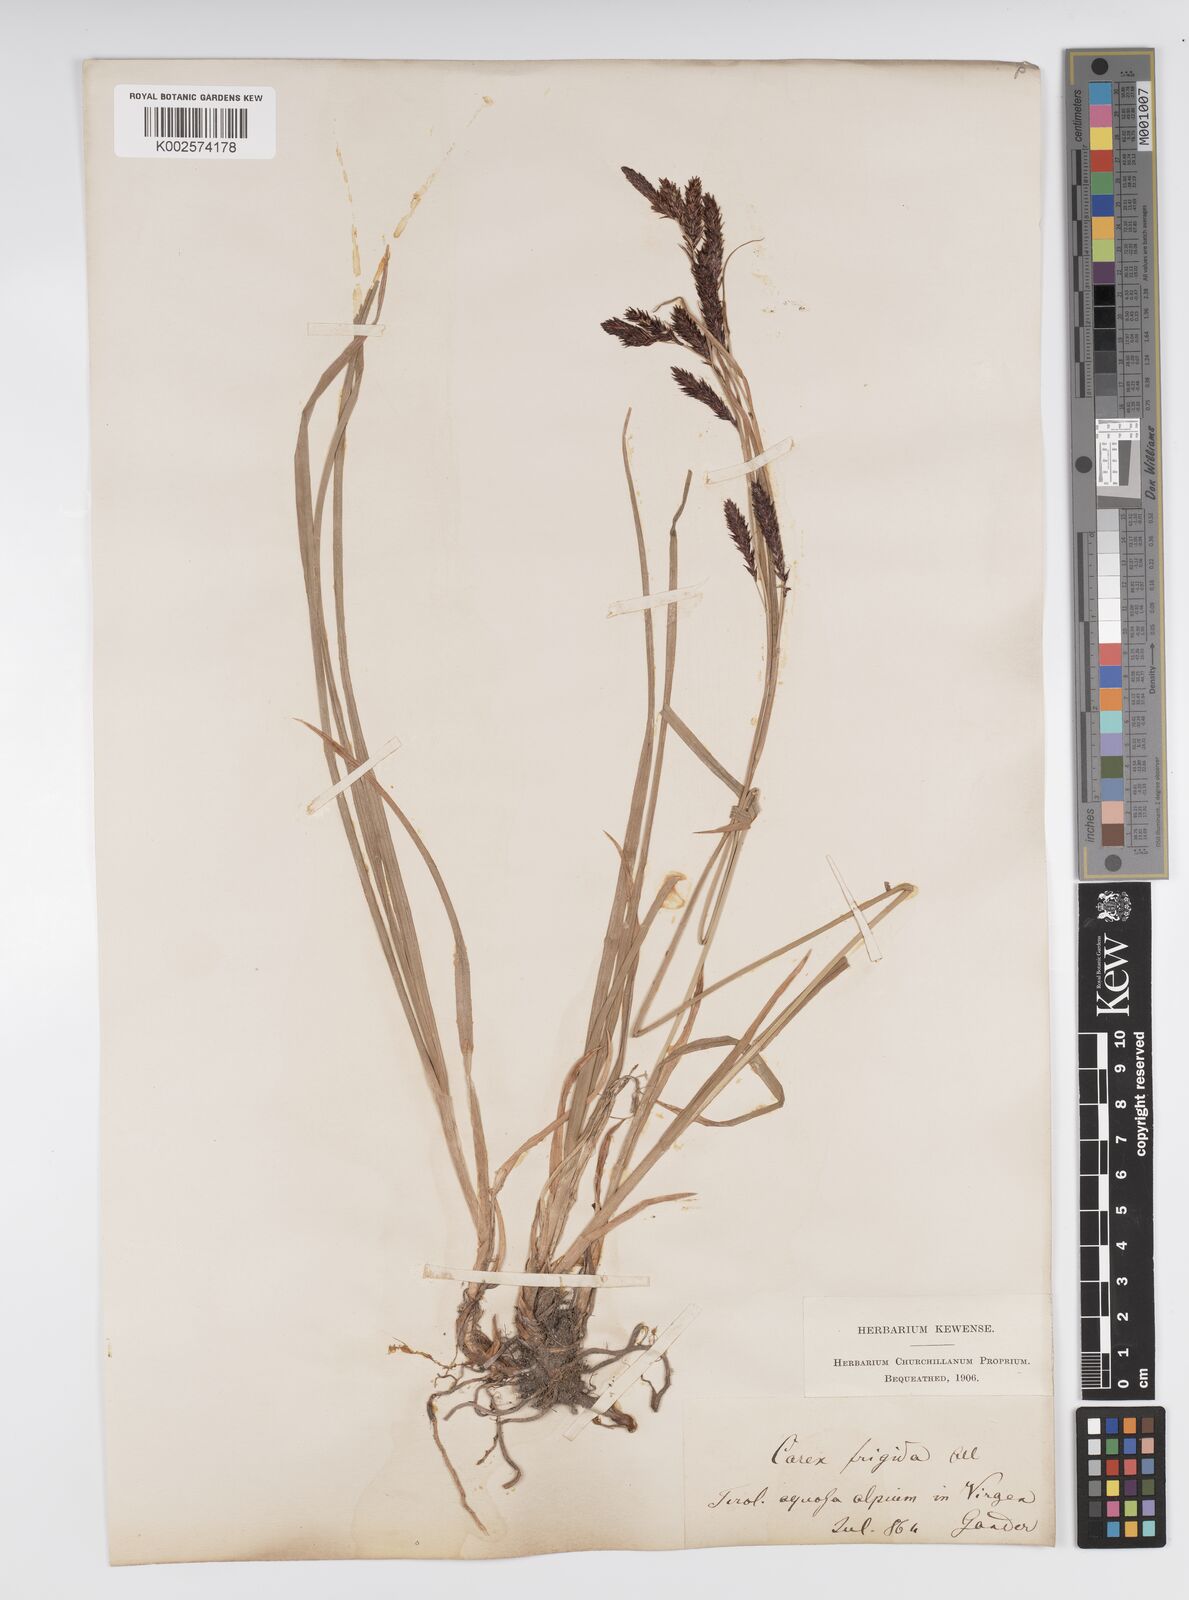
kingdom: Plantae
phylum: Tracheophyta
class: Liliopsida
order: Poales
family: Cyperaceae
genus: Carex
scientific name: Carex frigida
